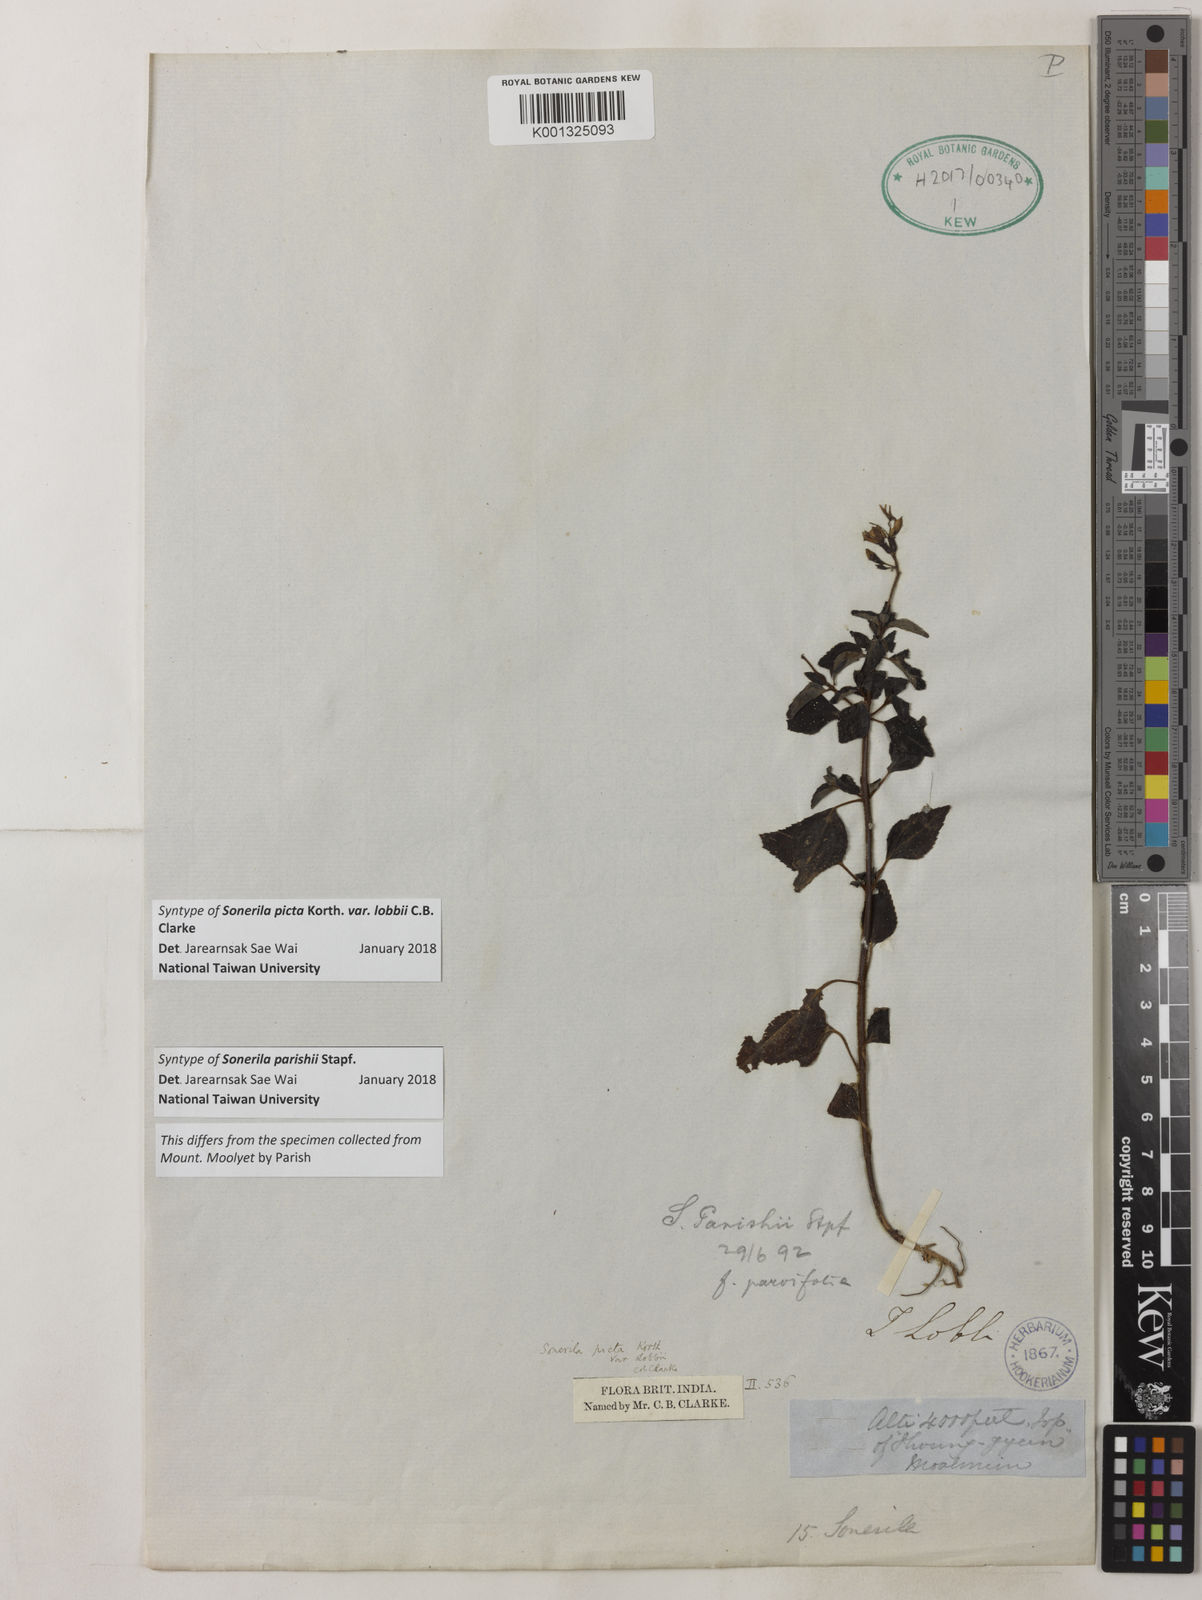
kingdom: Plantae
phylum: Tracheophyta
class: Magnoliopsida
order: Myrtales
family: Melastomataceae
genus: Sonerila
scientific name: Sonerila parishii
